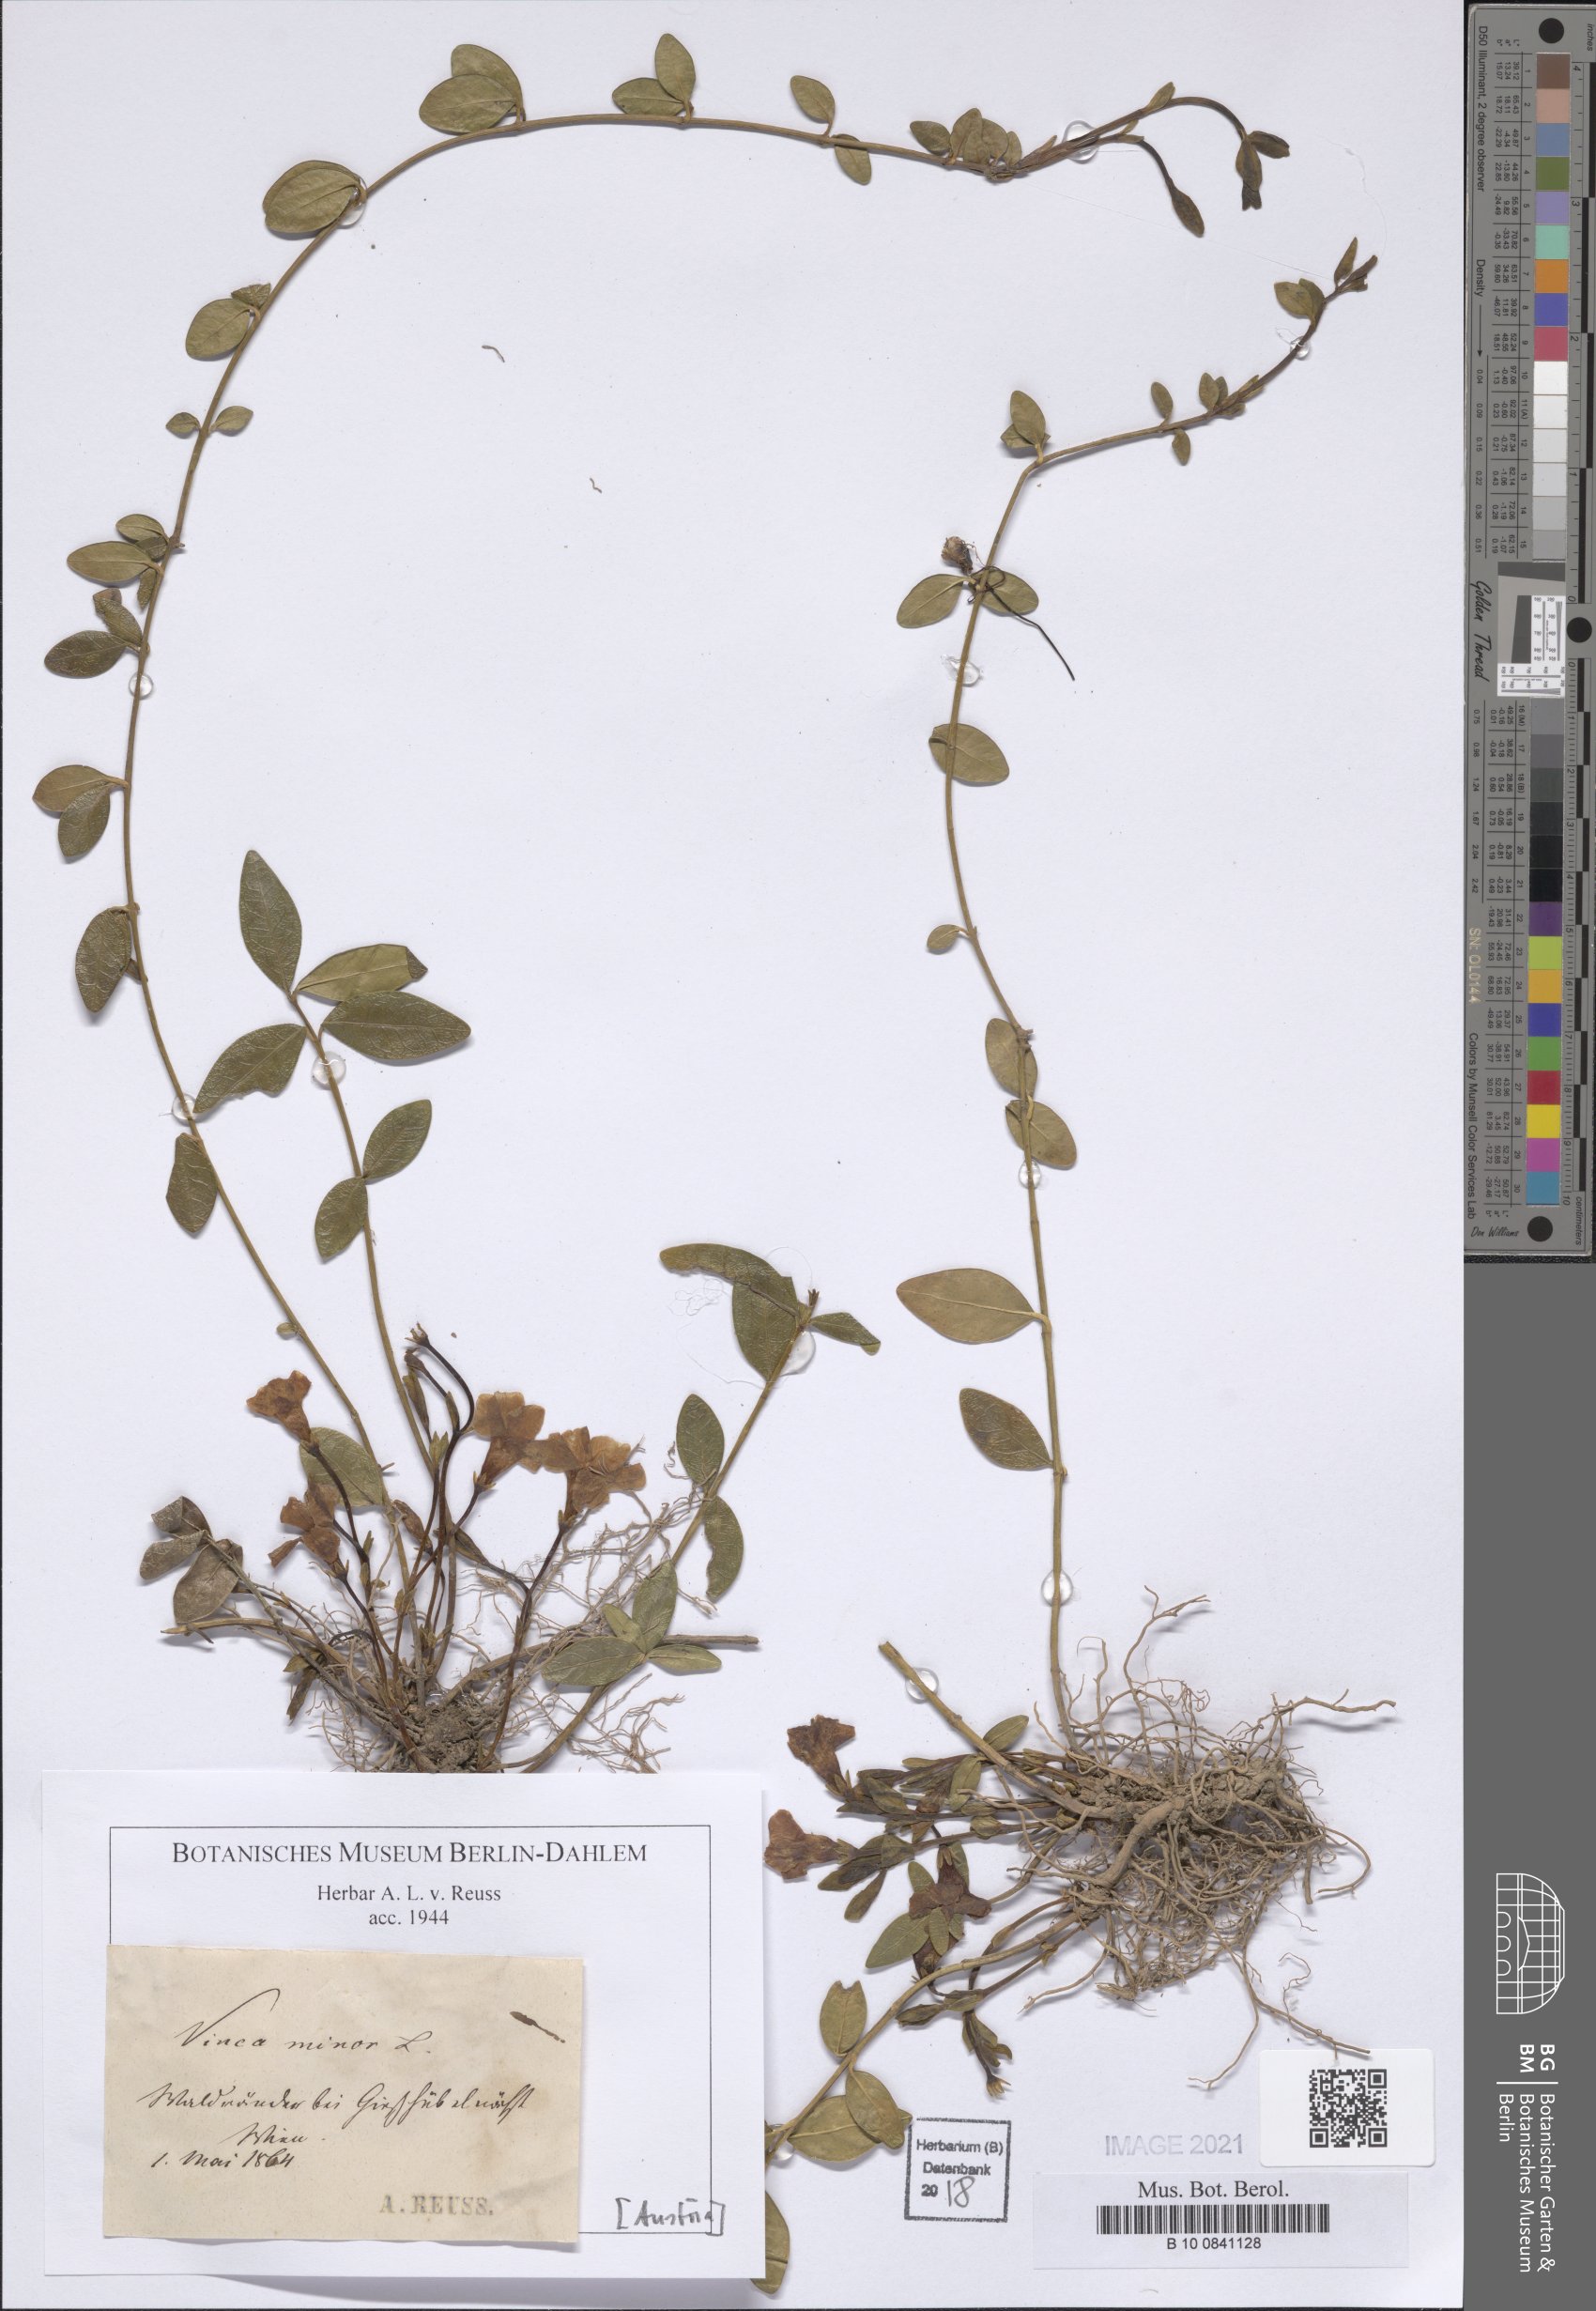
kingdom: Plantae
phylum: Tracheophyta
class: Magnoliopsida
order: Gentianales
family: Apocynaceae
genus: Vinca
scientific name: Vinca minor
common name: Lesser periwinkle
